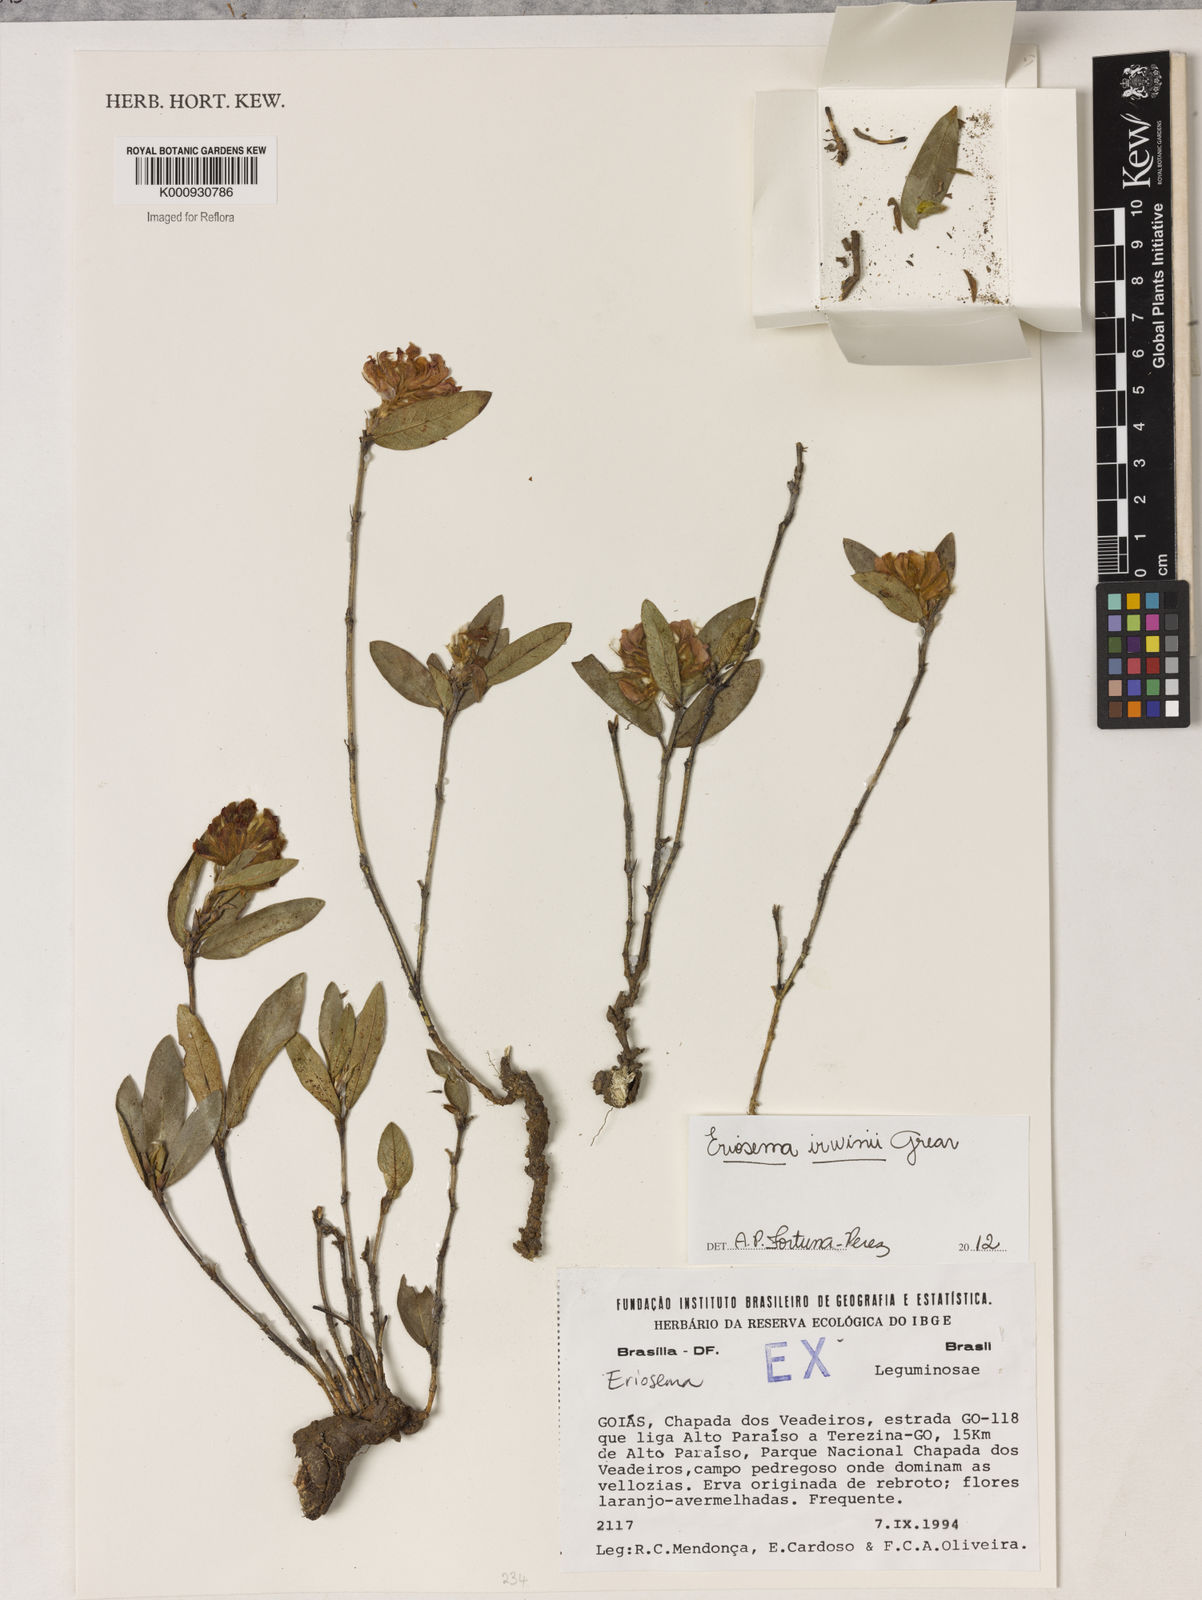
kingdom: Plantae
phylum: Tracheophyta
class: Magnoliopsida
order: Fabales
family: Fabaceae
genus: Eriosema
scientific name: Eriosema irwinii
